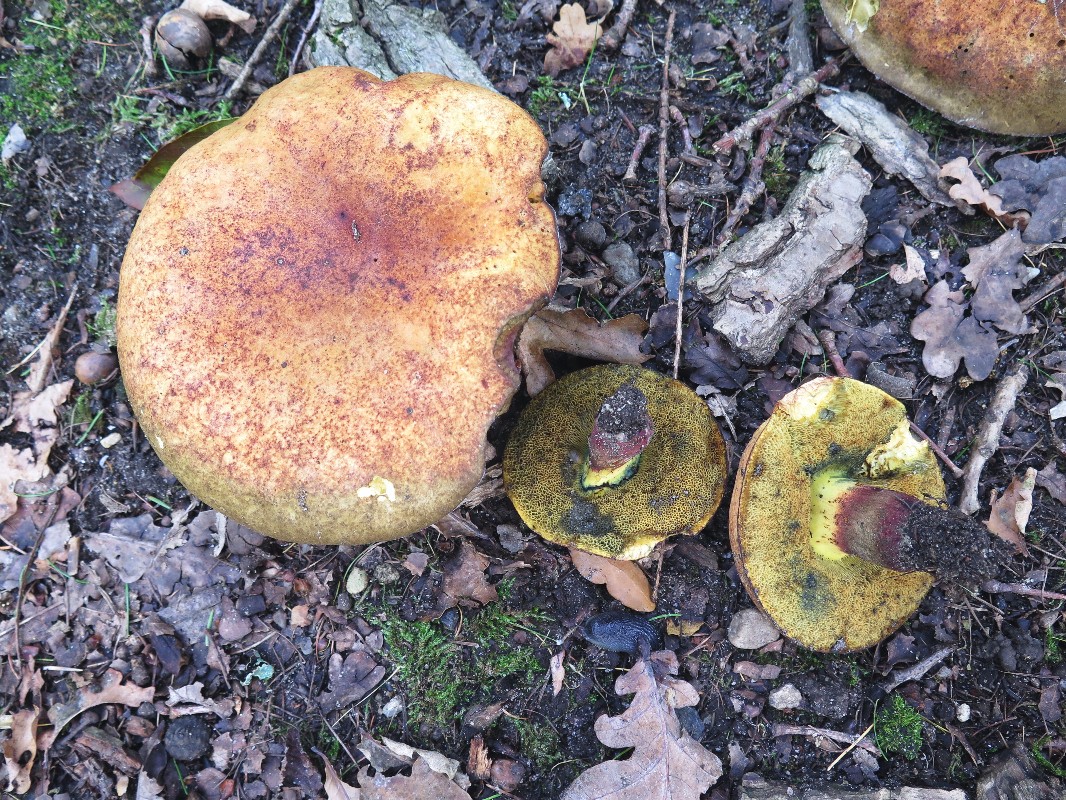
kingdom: Fungi
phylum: Basidiomycota
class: Agaricomycetes
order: Boletales
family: Boletaceae
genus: Suillellus
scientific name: Suillellus queletii
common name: glatstokket indigorørhat
